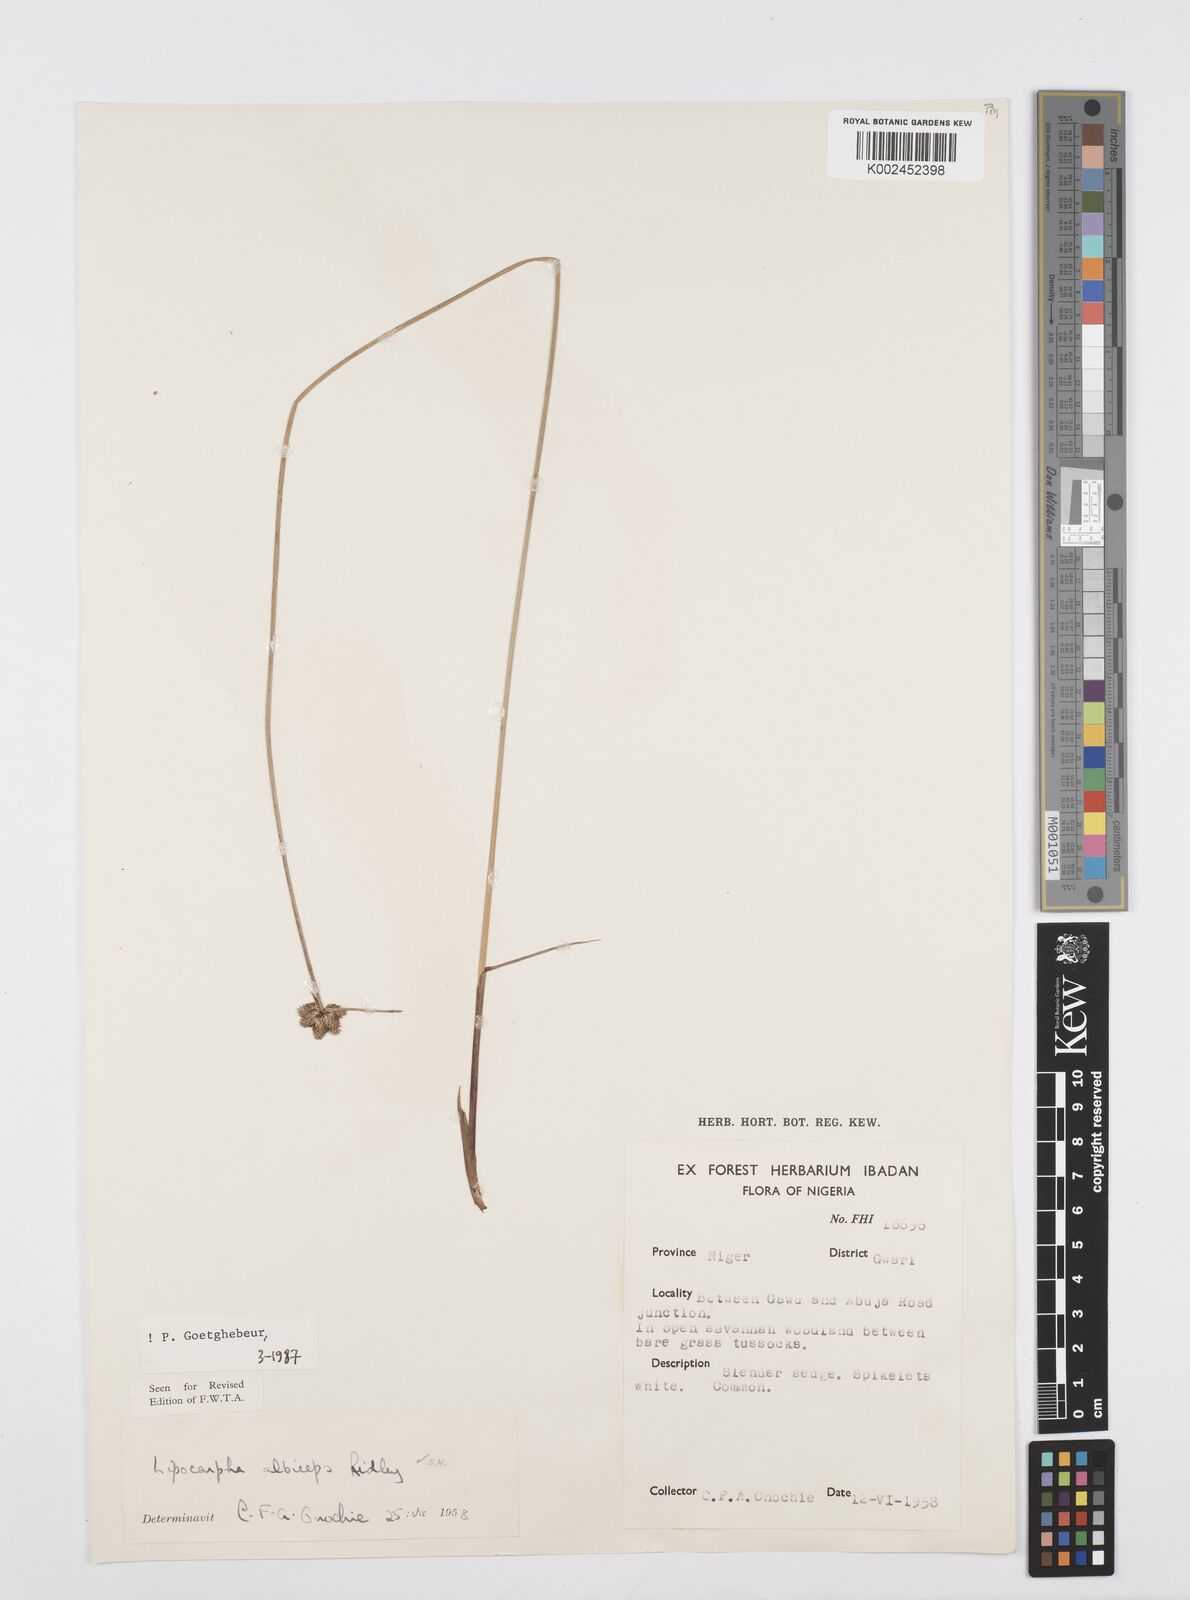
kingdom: Plantae
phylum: Tracheophyta
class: Liliopsida
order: Poales
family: Cyperaceae
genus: Cyperus
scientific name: Cyperus albiceps
